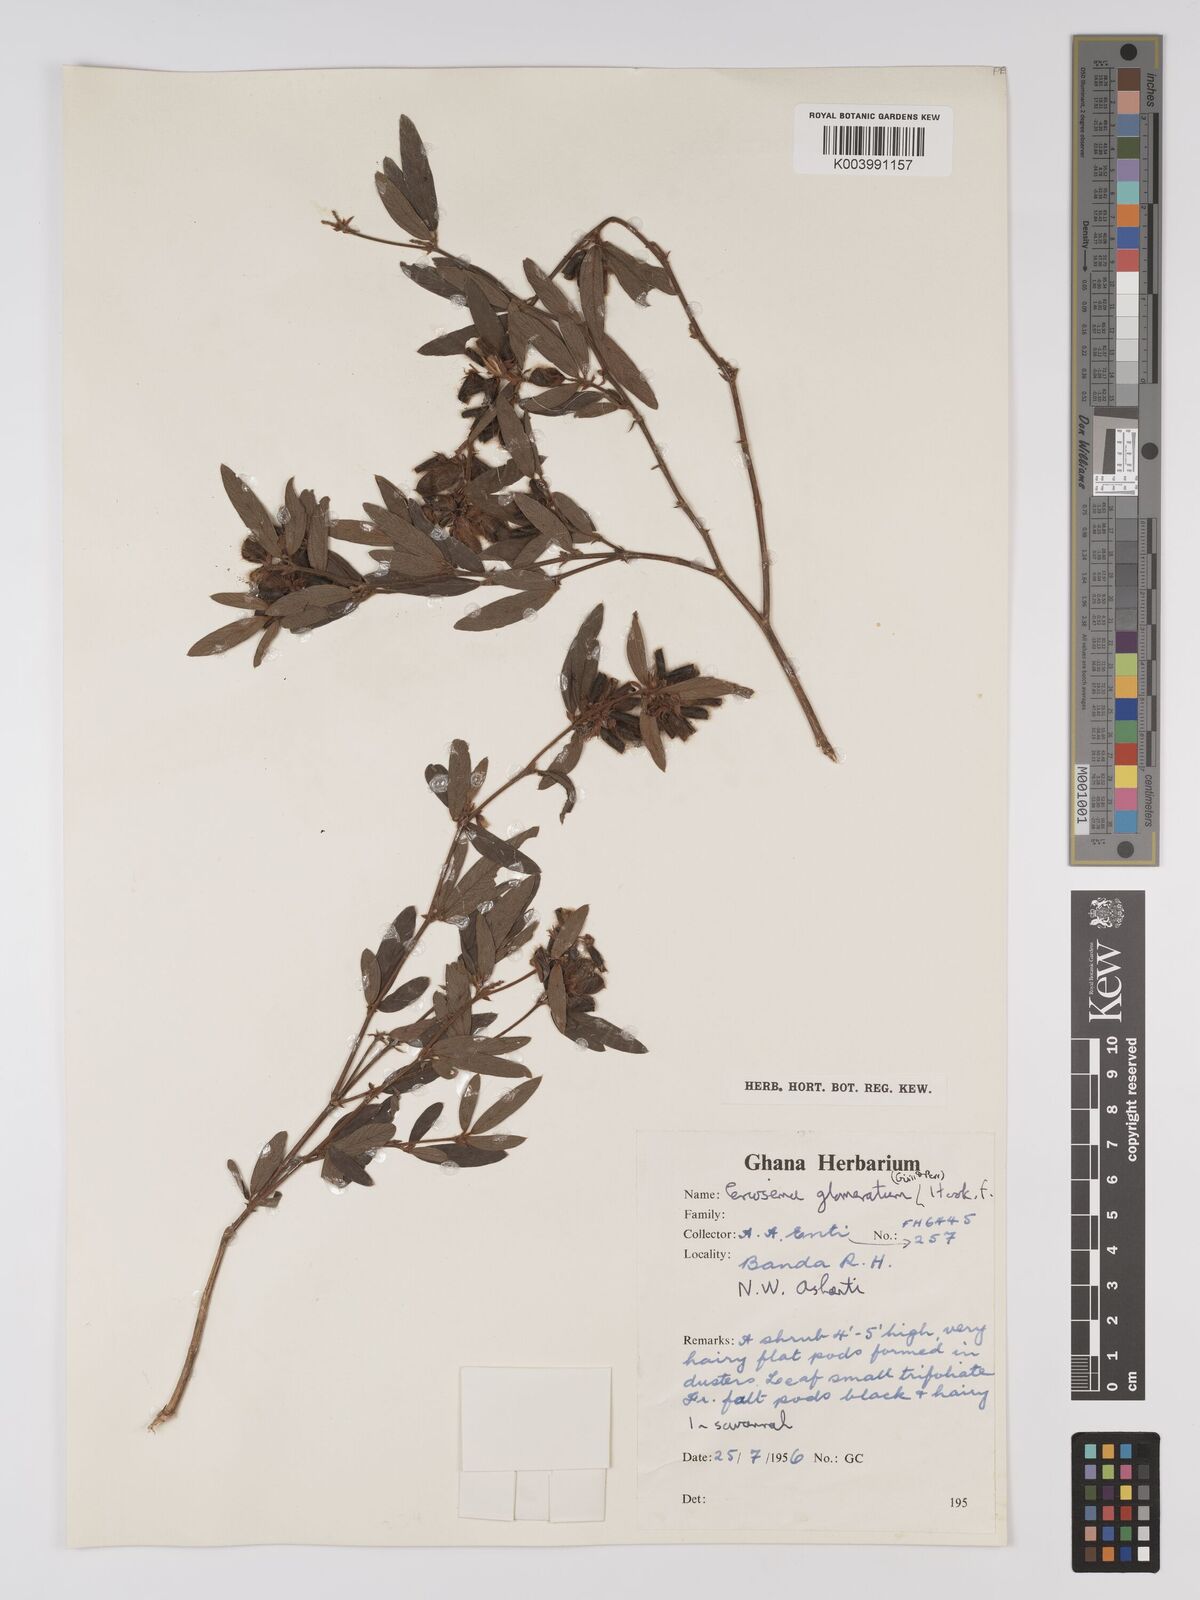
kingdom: Plantae
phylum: Tracheophyta
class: Magnoliopsida
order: Fabales
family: Fabaceae
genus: Eriosema
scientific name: Eriosema glomeratum
